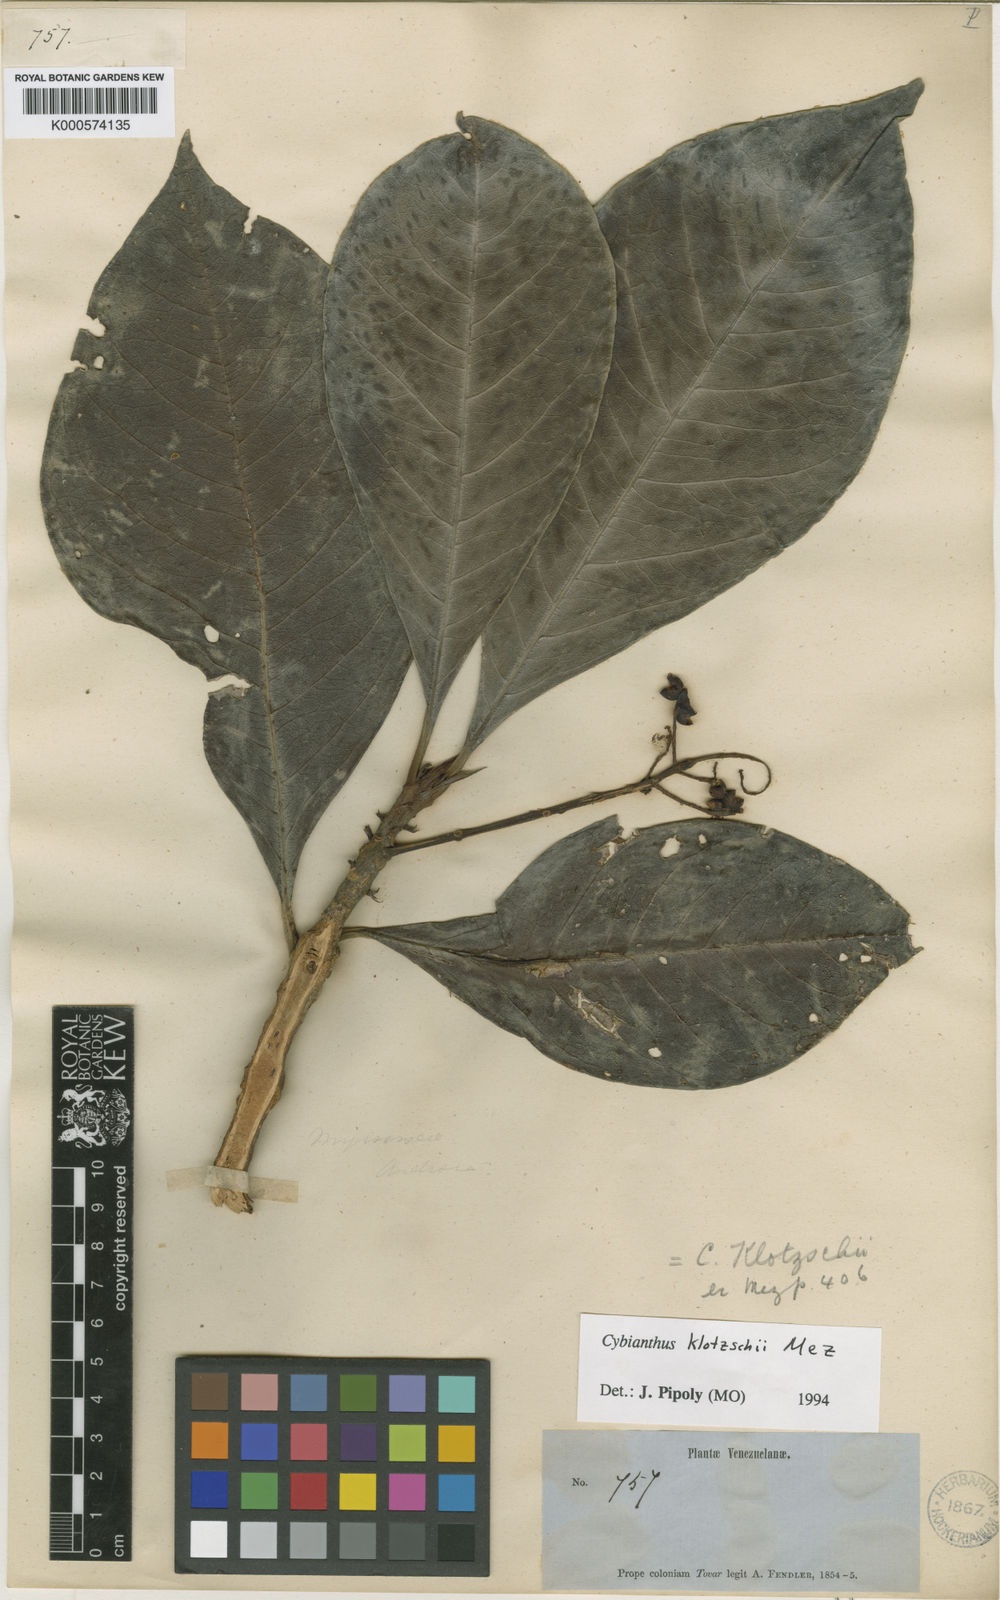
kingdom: Plantae
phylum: Tracheophyta
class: Magnoliopsida
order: Ericales
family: Primulaceae
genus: Cybianthus
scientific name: Cybianthus klotzschii
